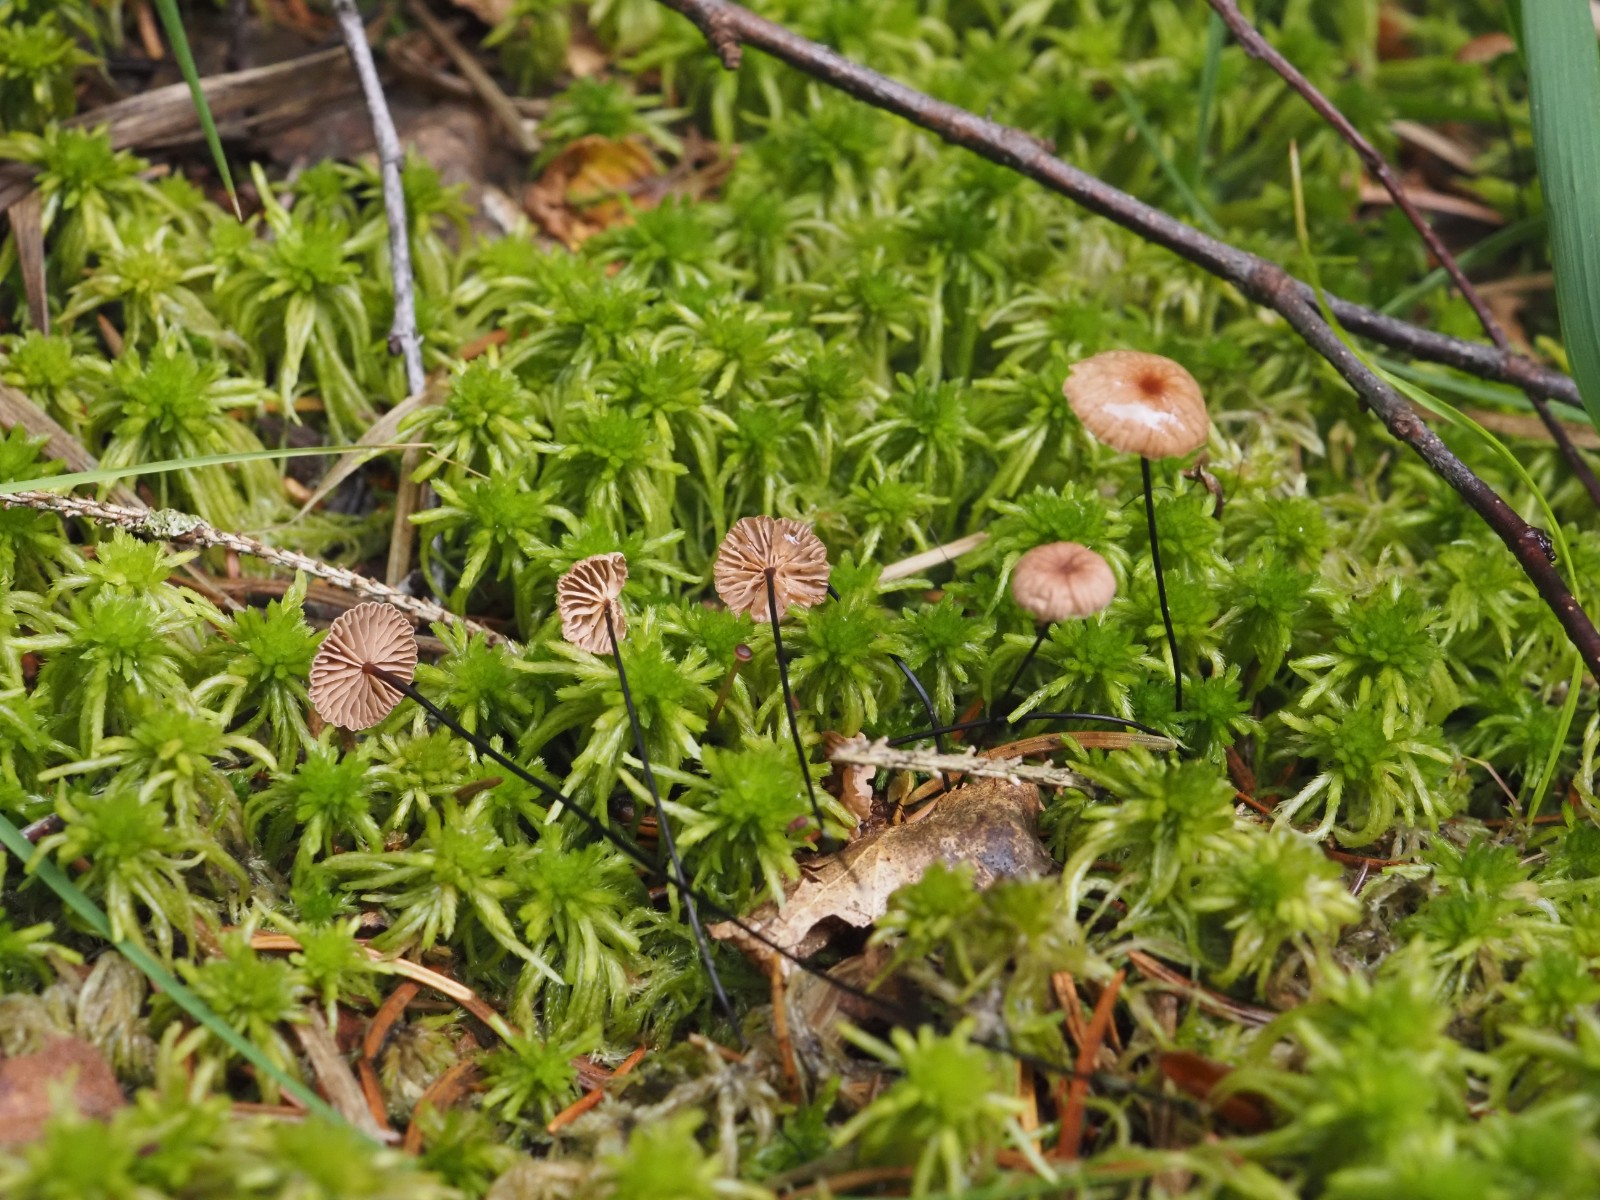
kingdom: Fungi
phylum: Basidiomycota
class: Agaricomycetes
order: Agaricales
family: Omphalotaceae
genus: Gymnopus
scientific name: Gymnopus androsaceus
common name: trådstokket fladhat
